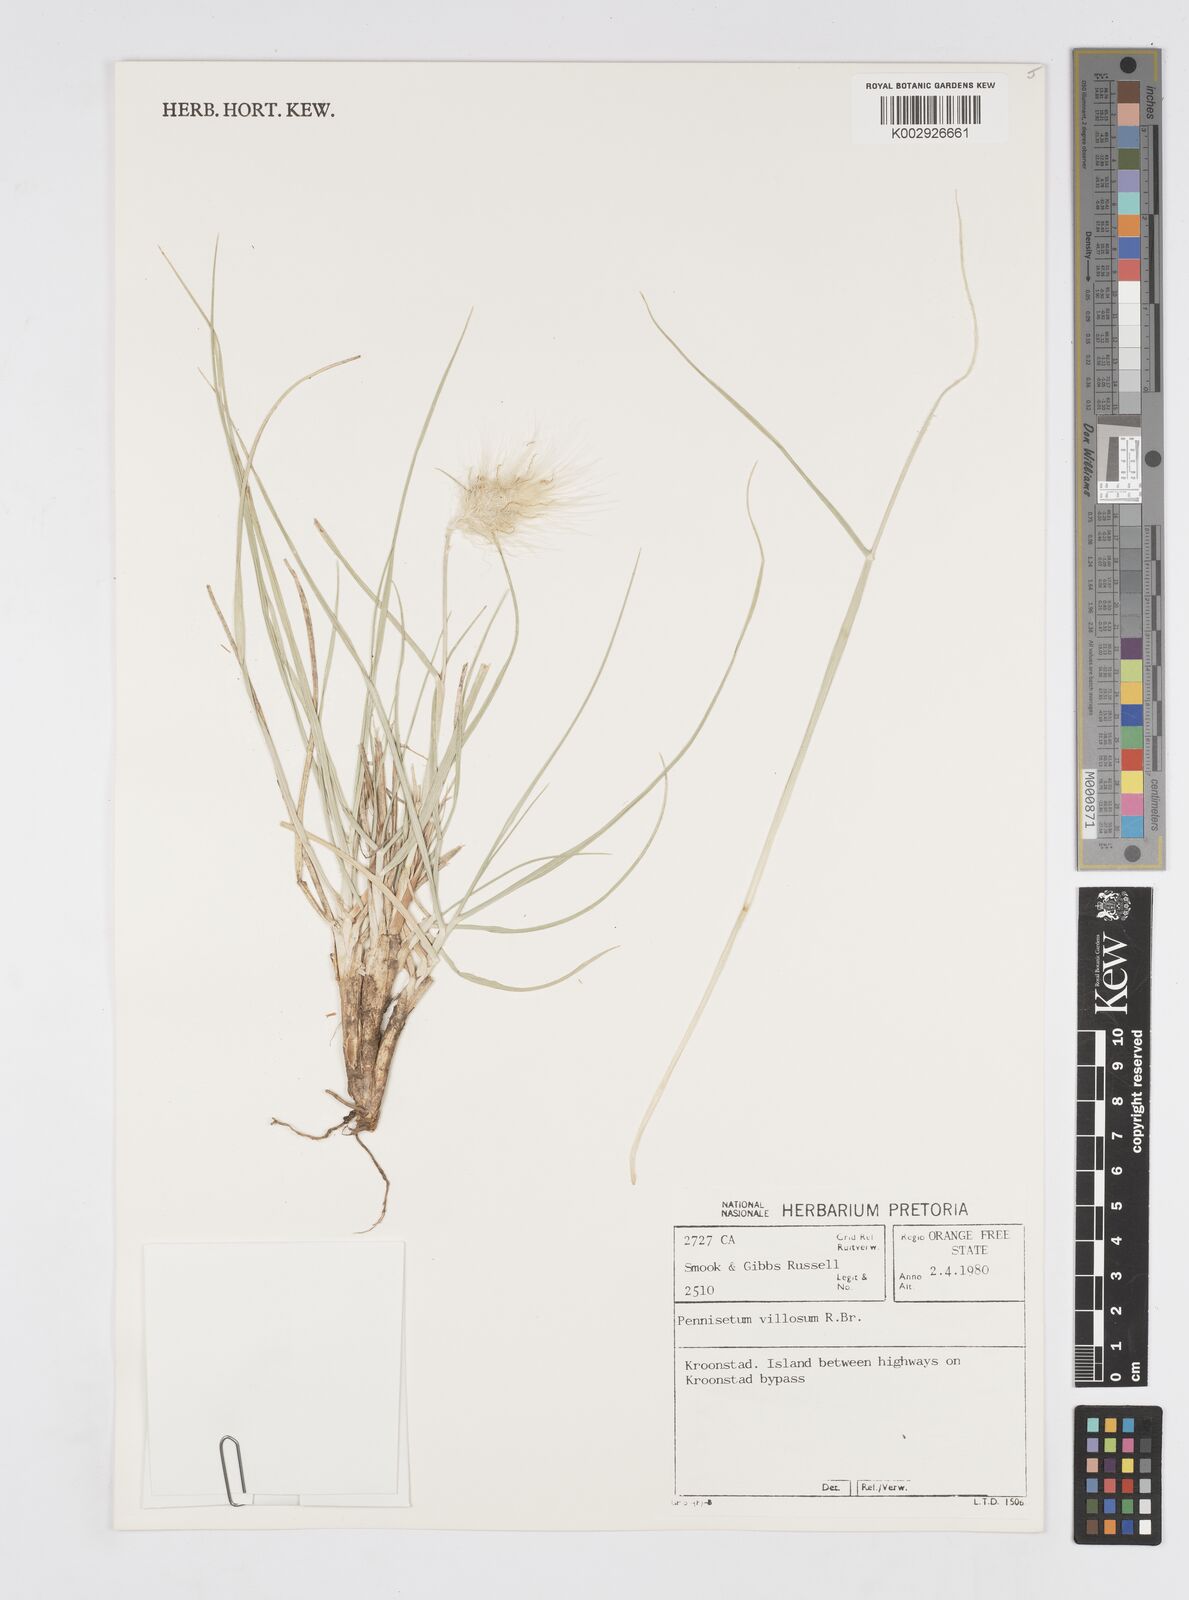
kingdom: Plantae
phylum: Tracheophyta
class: Liliopsida
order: Poales
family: Poaceae
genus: Cenchrus
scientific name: Cenchrus longisetus
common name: Feathertop
